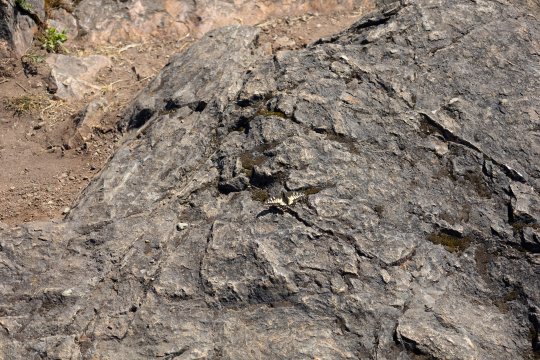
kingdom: Animalia
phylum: Arthropoda
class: Insecta
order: Lepidoptera
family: Papilionidae
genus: Papilio
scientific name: Papilio zelicaon
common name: Anise Swallowtail
